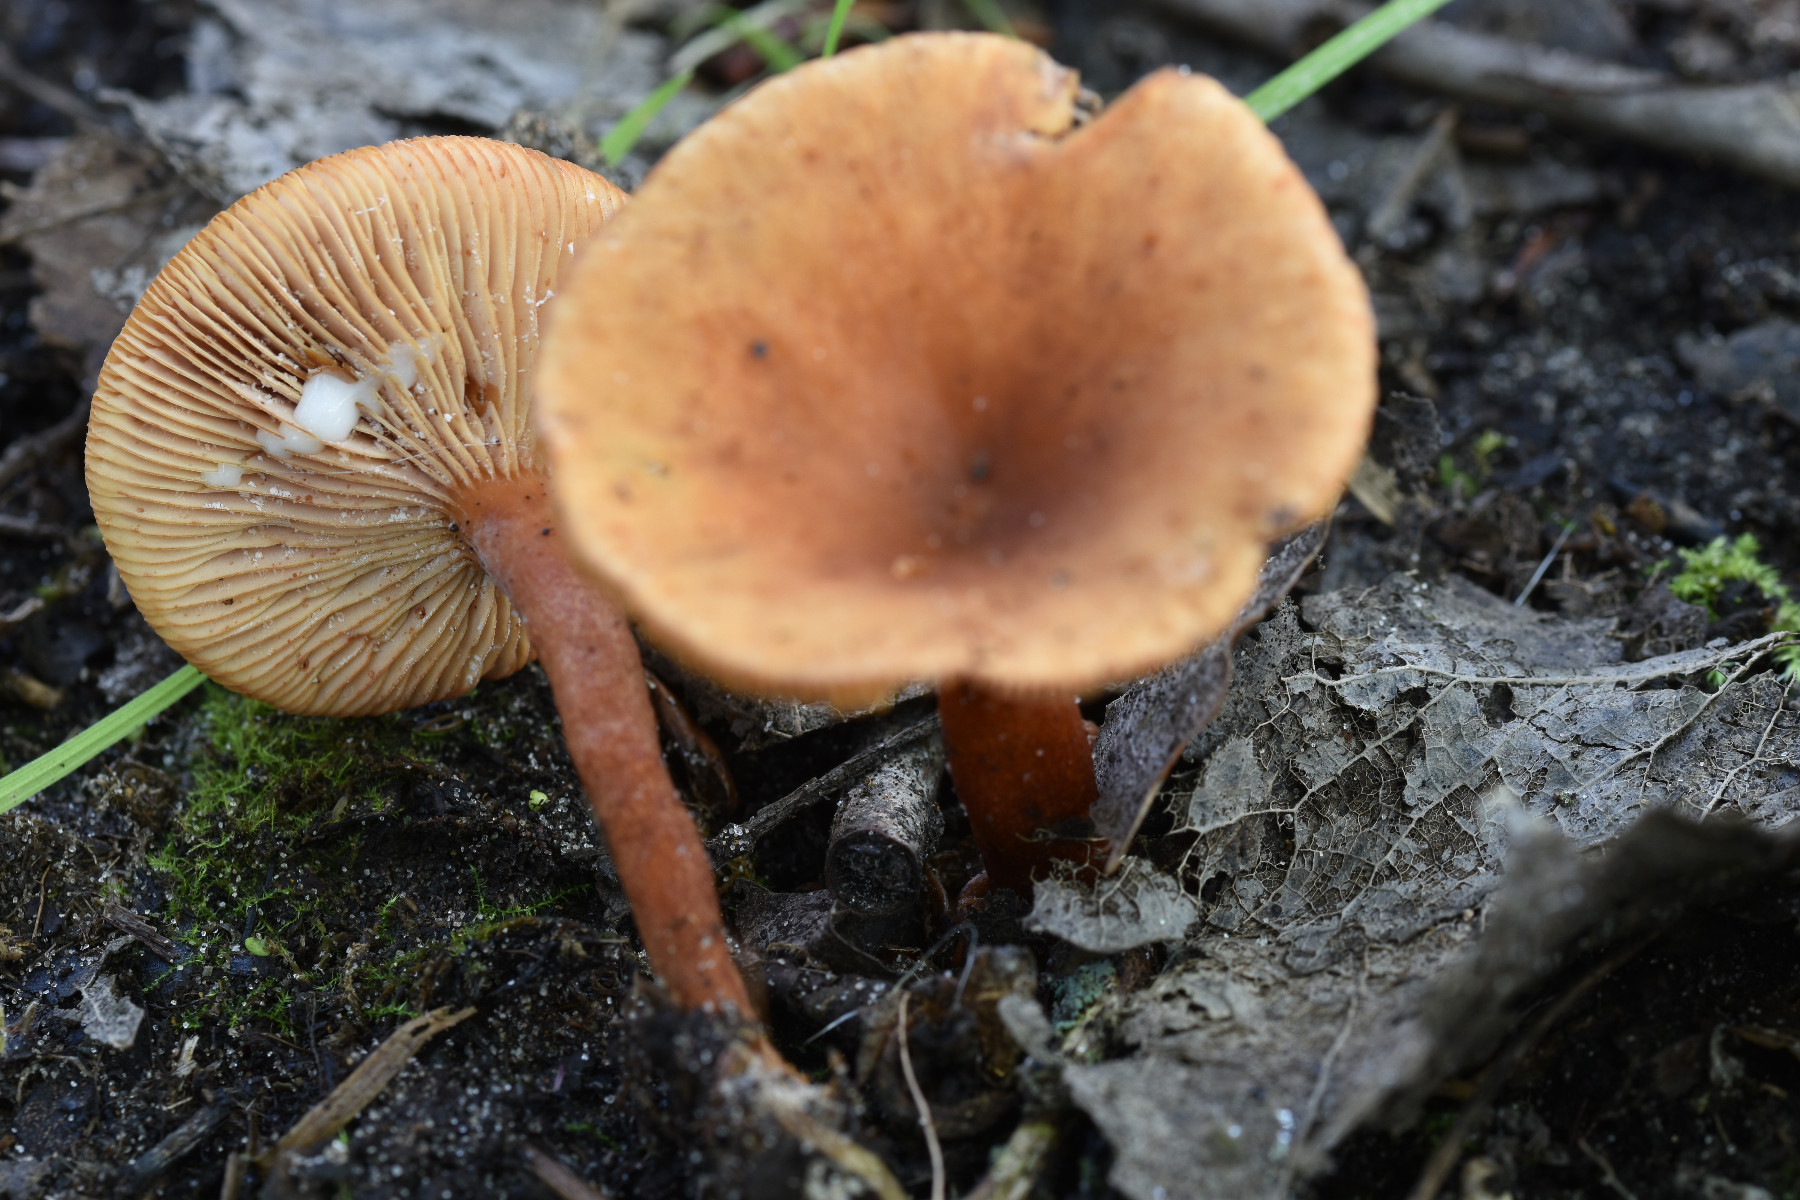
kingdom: Fungi
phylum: Basidiomycota
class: Agaricomycetes
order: Russulales
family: Russulaceae
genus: Lactarius
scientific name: Lactarius tabidus
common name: rynket mælkehat
